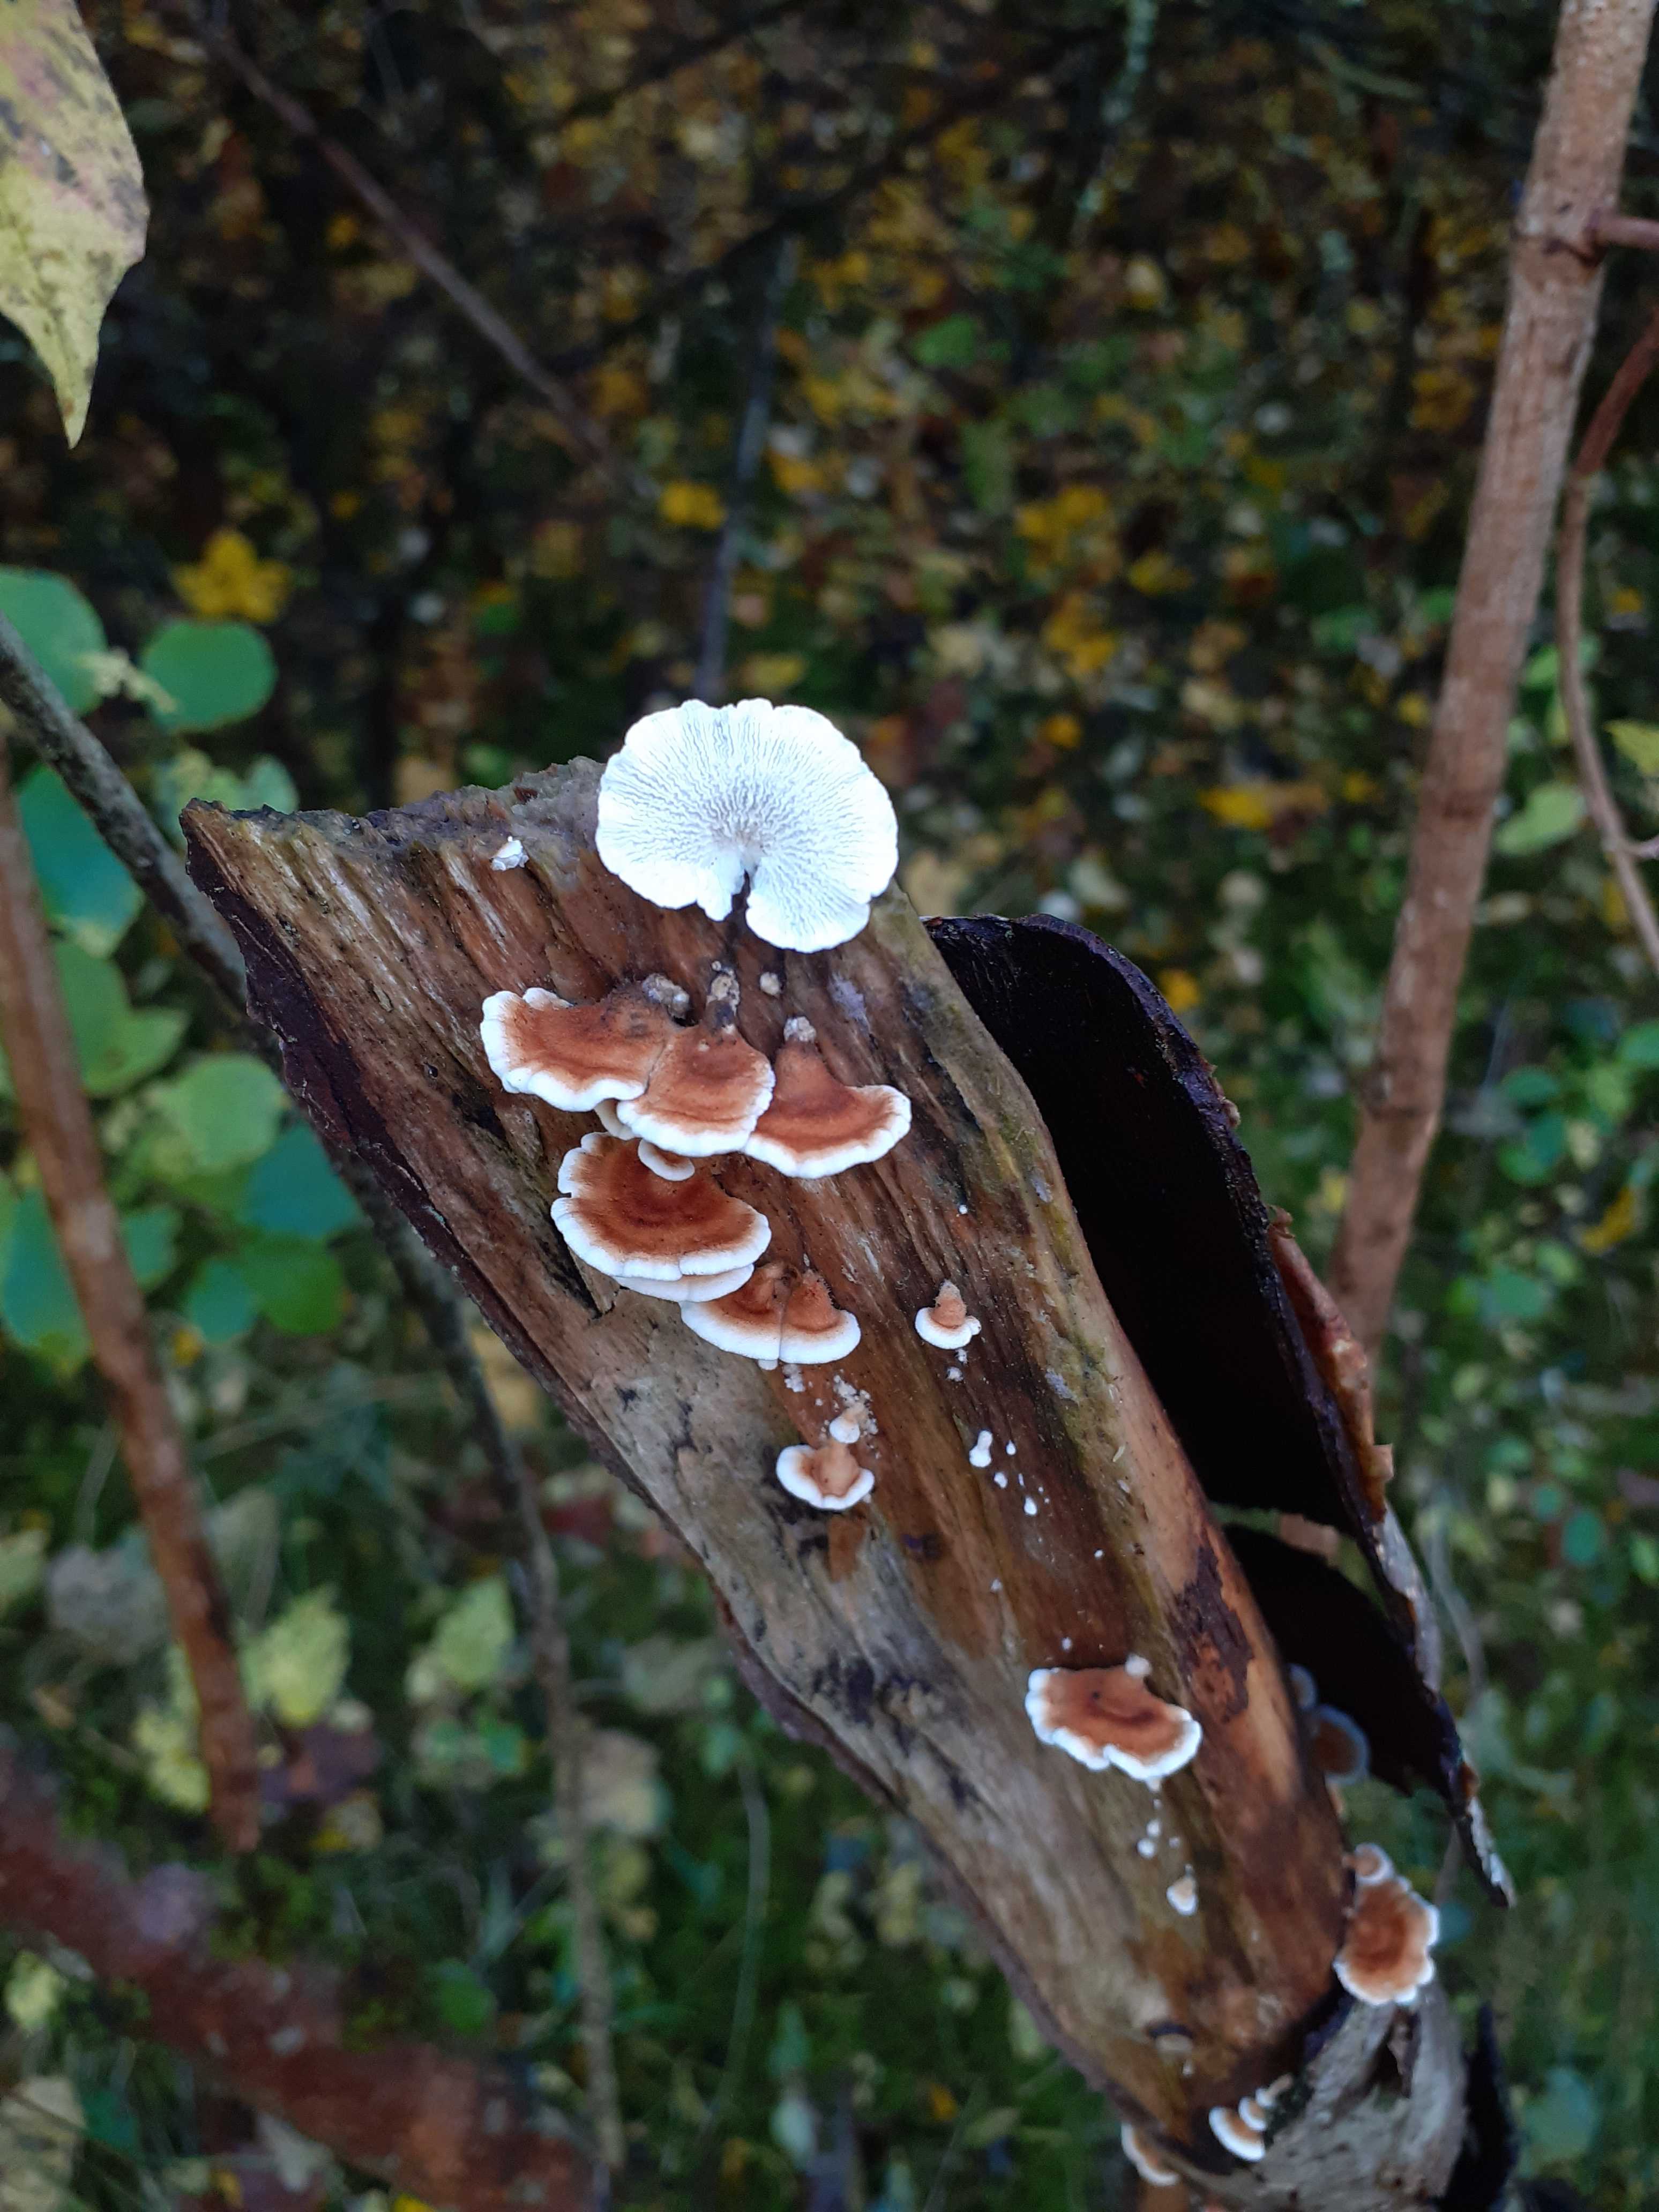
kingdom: Fungi
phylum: Basidiomycota
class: Agaricomycetes
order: Amylocorticiales
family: Amylocorticiaceae
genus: Plicaturopsis
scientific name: Plicaturopsis crispa
